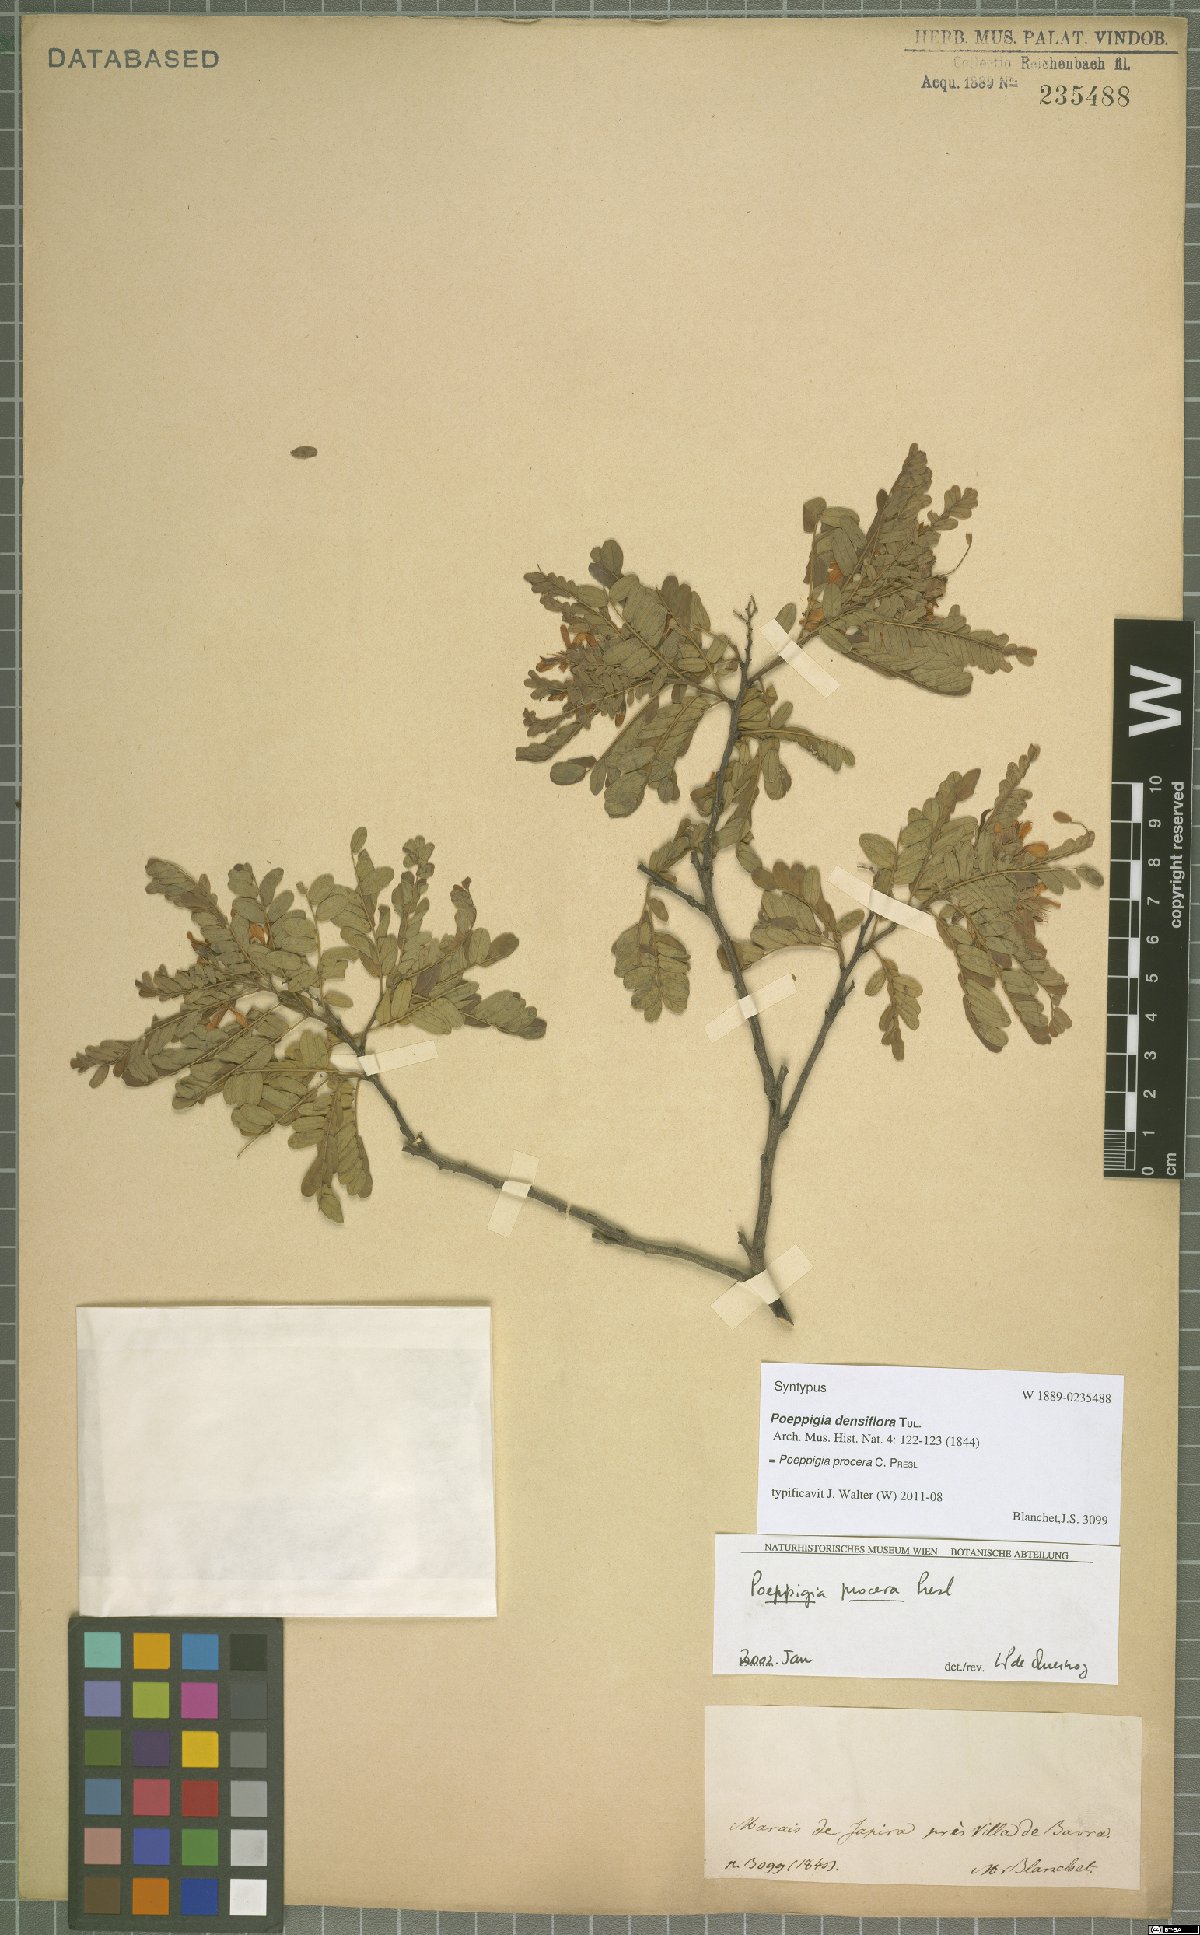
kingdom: Plantae
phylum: Tracheophyta
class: Magnoliopsida
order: Fabales
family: Fabaceae
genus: Poeppigia
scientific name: Poeppigia procera
